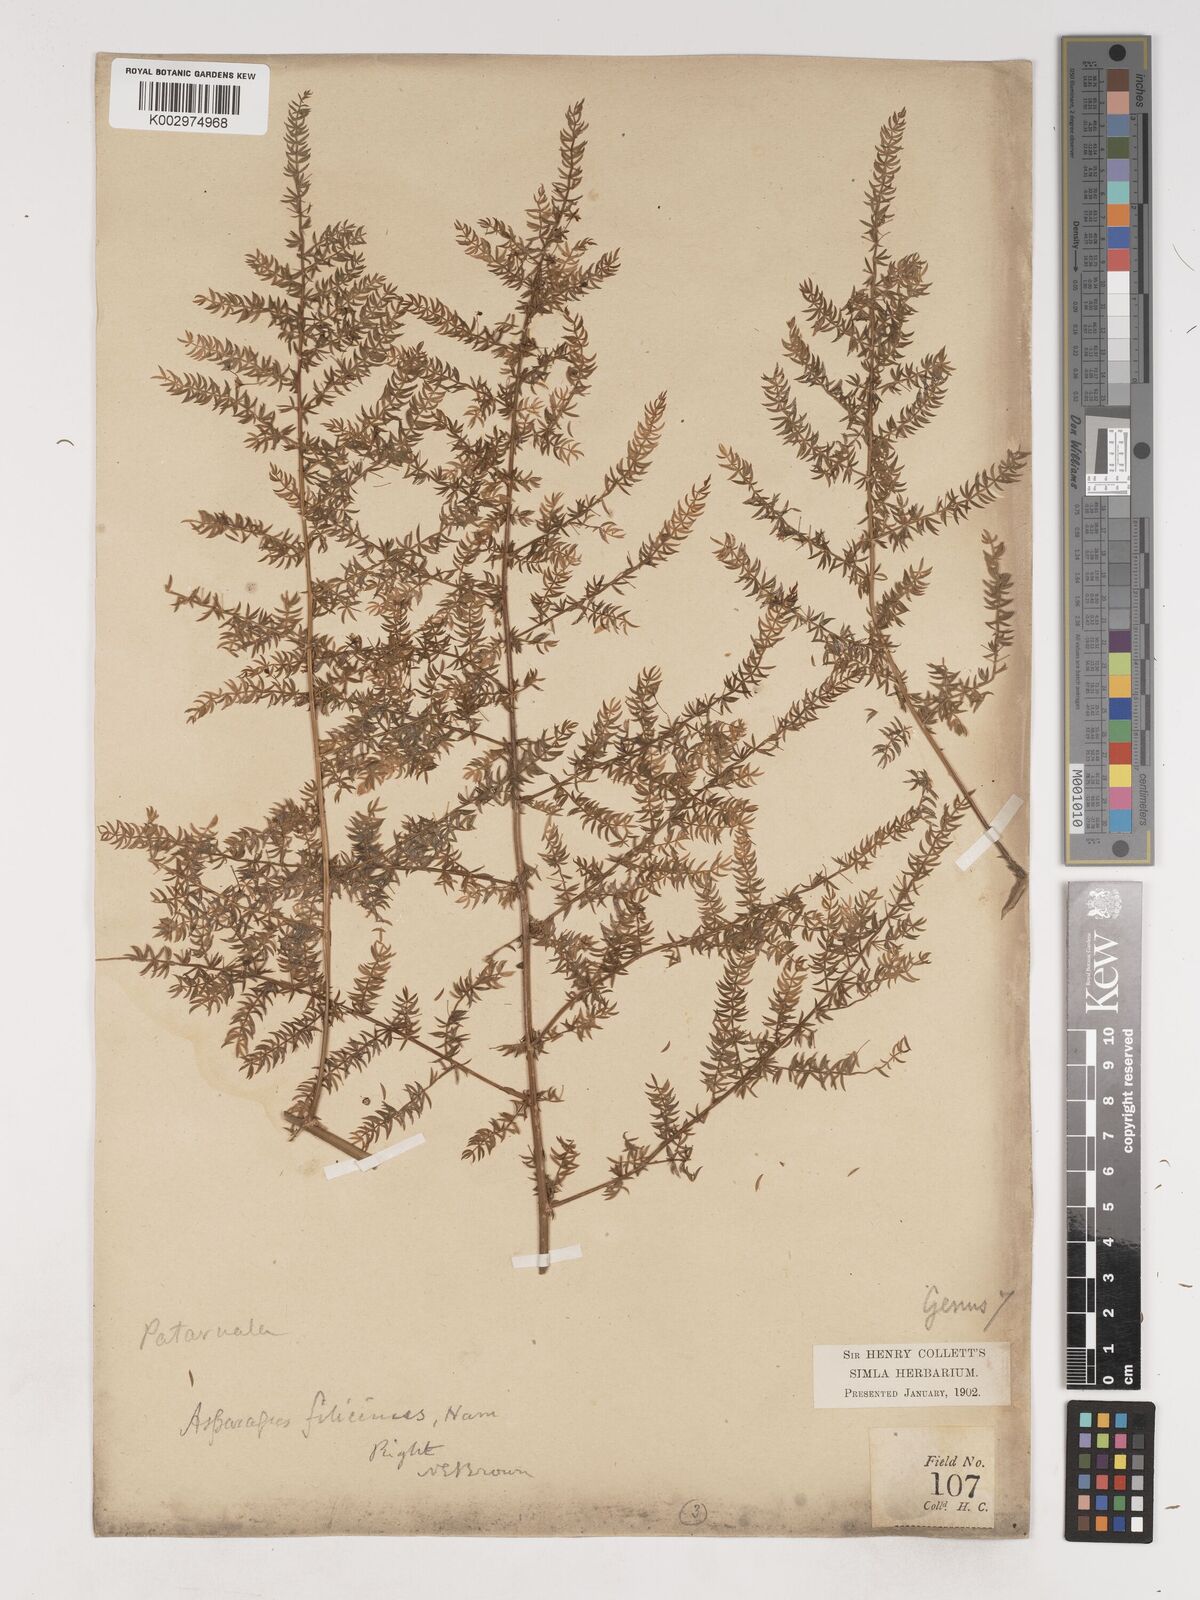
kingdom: Plantae
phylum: Tracheophyta
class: Liliopsida
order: Asparagales
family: Asparagaceae
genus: Asparagus
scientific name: Asparagus filicinus
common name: Fern asparagus
